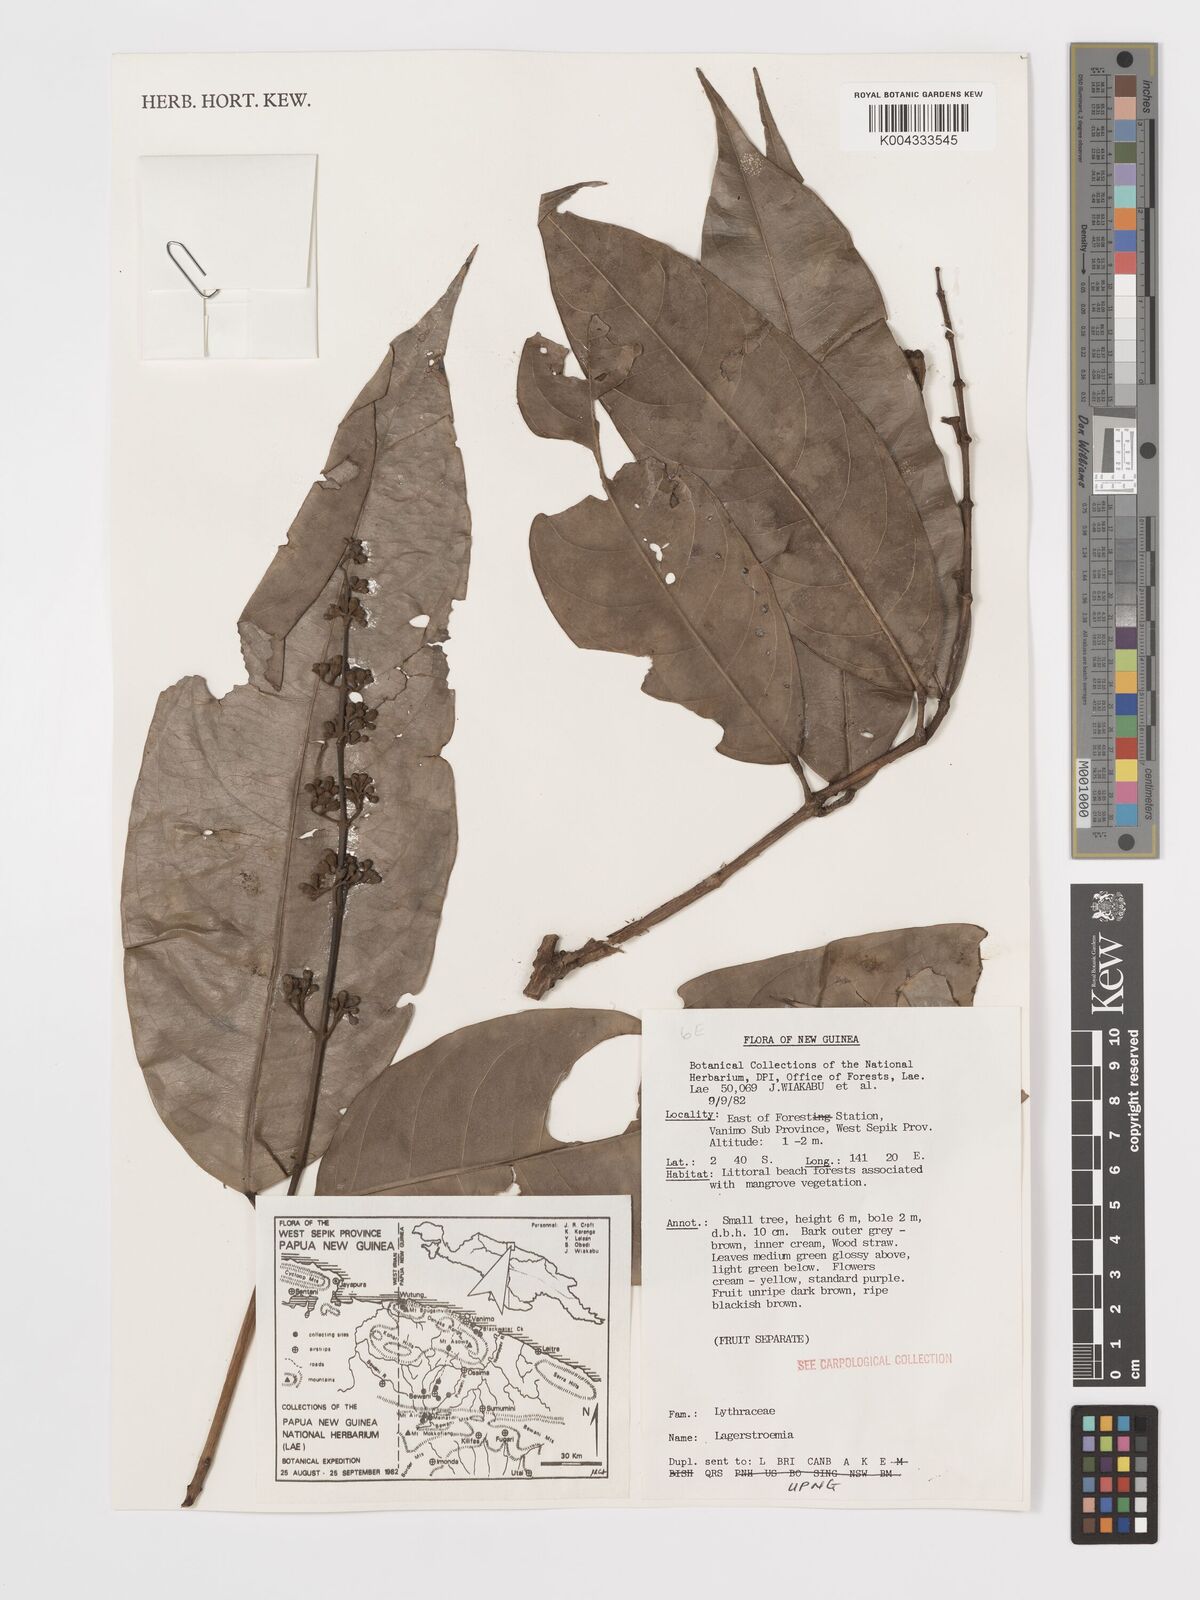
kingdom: Plantae
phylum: Tracheophyta
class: Magnoliopsida
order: Myrtales
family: Lythraceae
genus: Lagerstroemia
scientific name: Lagerstroemia
